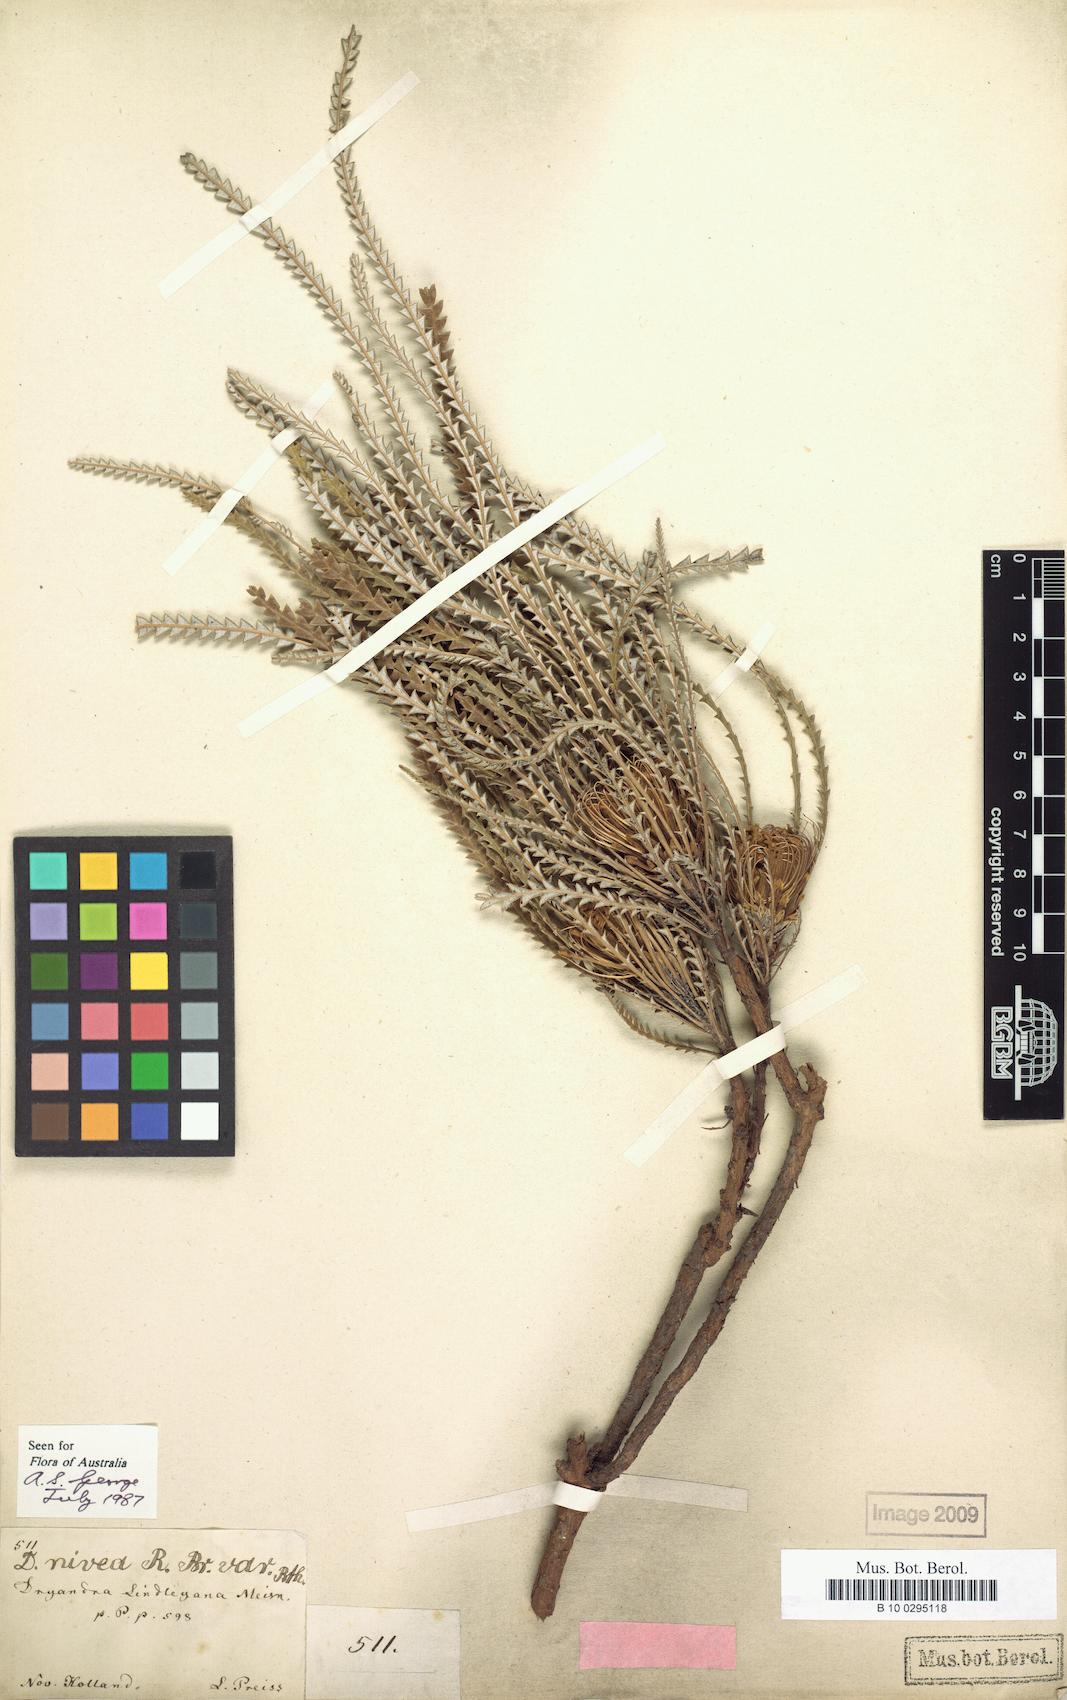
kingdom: Plantae
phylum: Tracheophyta
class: Magnoliopsida
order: Proteales
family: Proteaceae
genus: Banksia
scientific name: Banksia nivea
